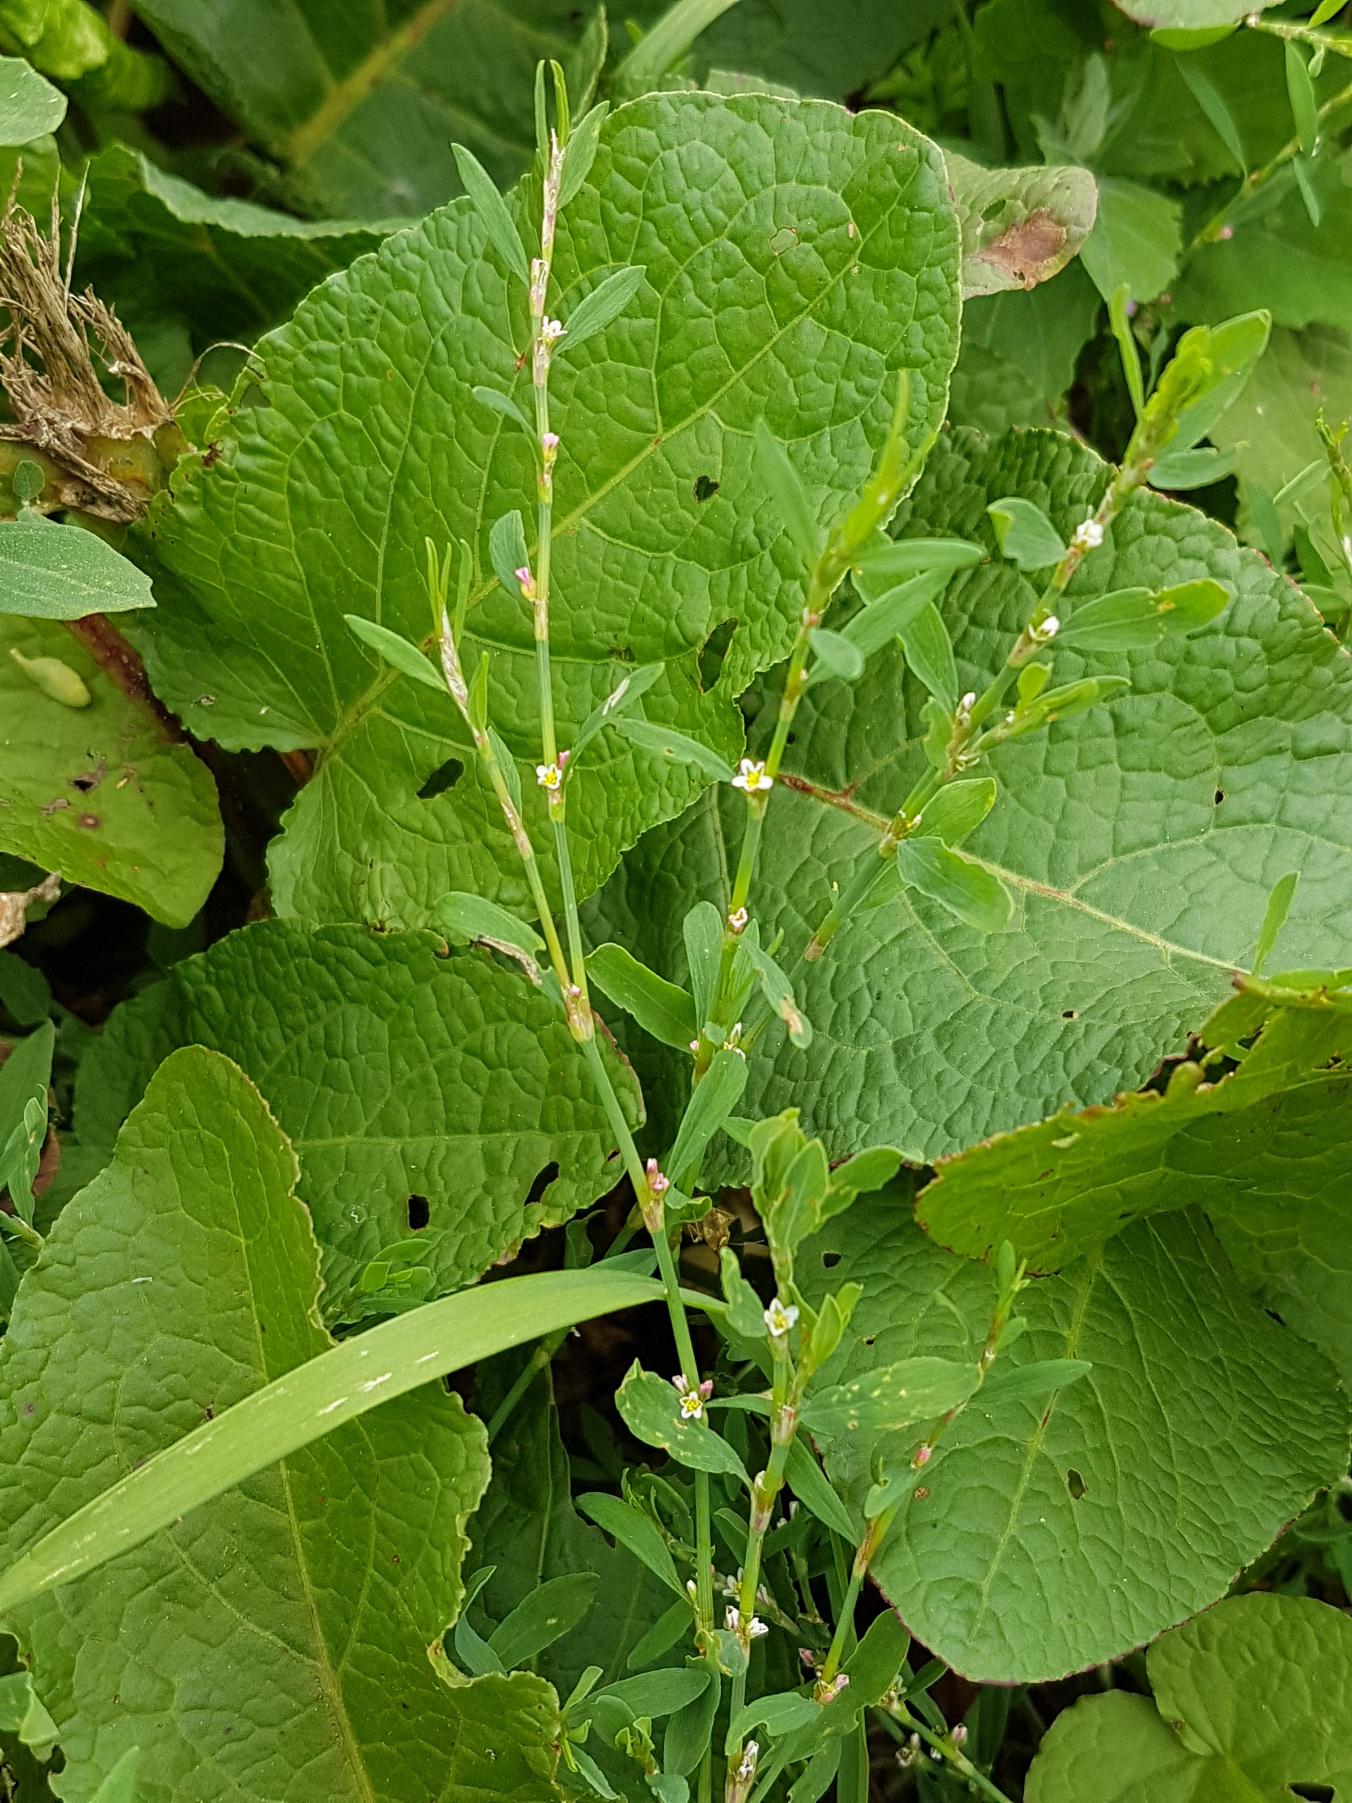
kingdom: Plantae
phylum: Tracheophyta
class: Magnoliopsida
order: Caryophyllales
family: Polygonaceae
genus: Polygonum
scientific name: Polygonum aviculare
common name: Vej-pileurt
